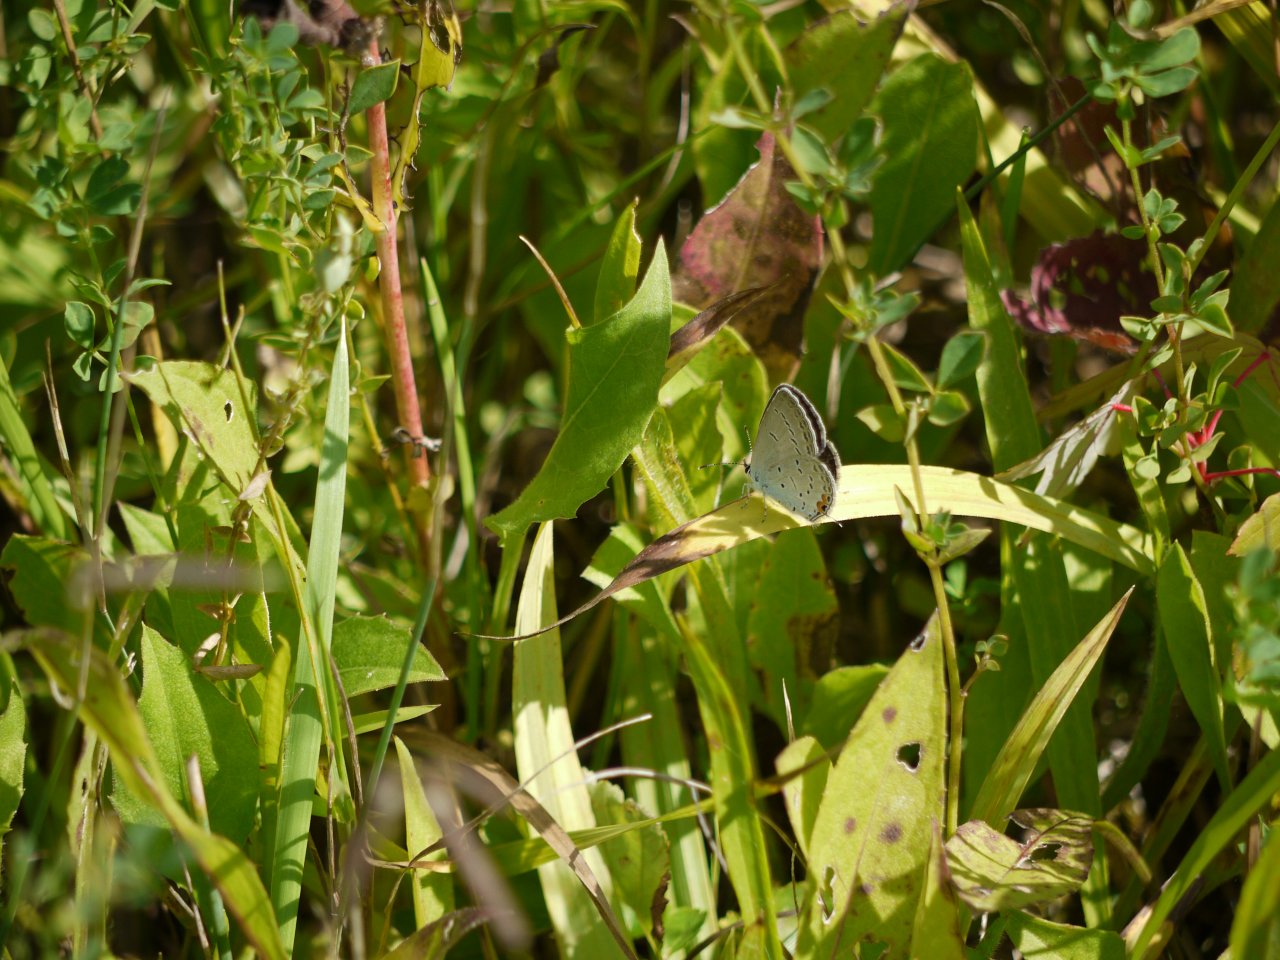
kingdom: Animalia
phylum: Arthropoda
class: Insecta
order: Lepidoptera
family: Lycaenidae
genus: Elkalyce
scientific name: Elkalyce comyntas
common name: Eastern Tailed-Blue
